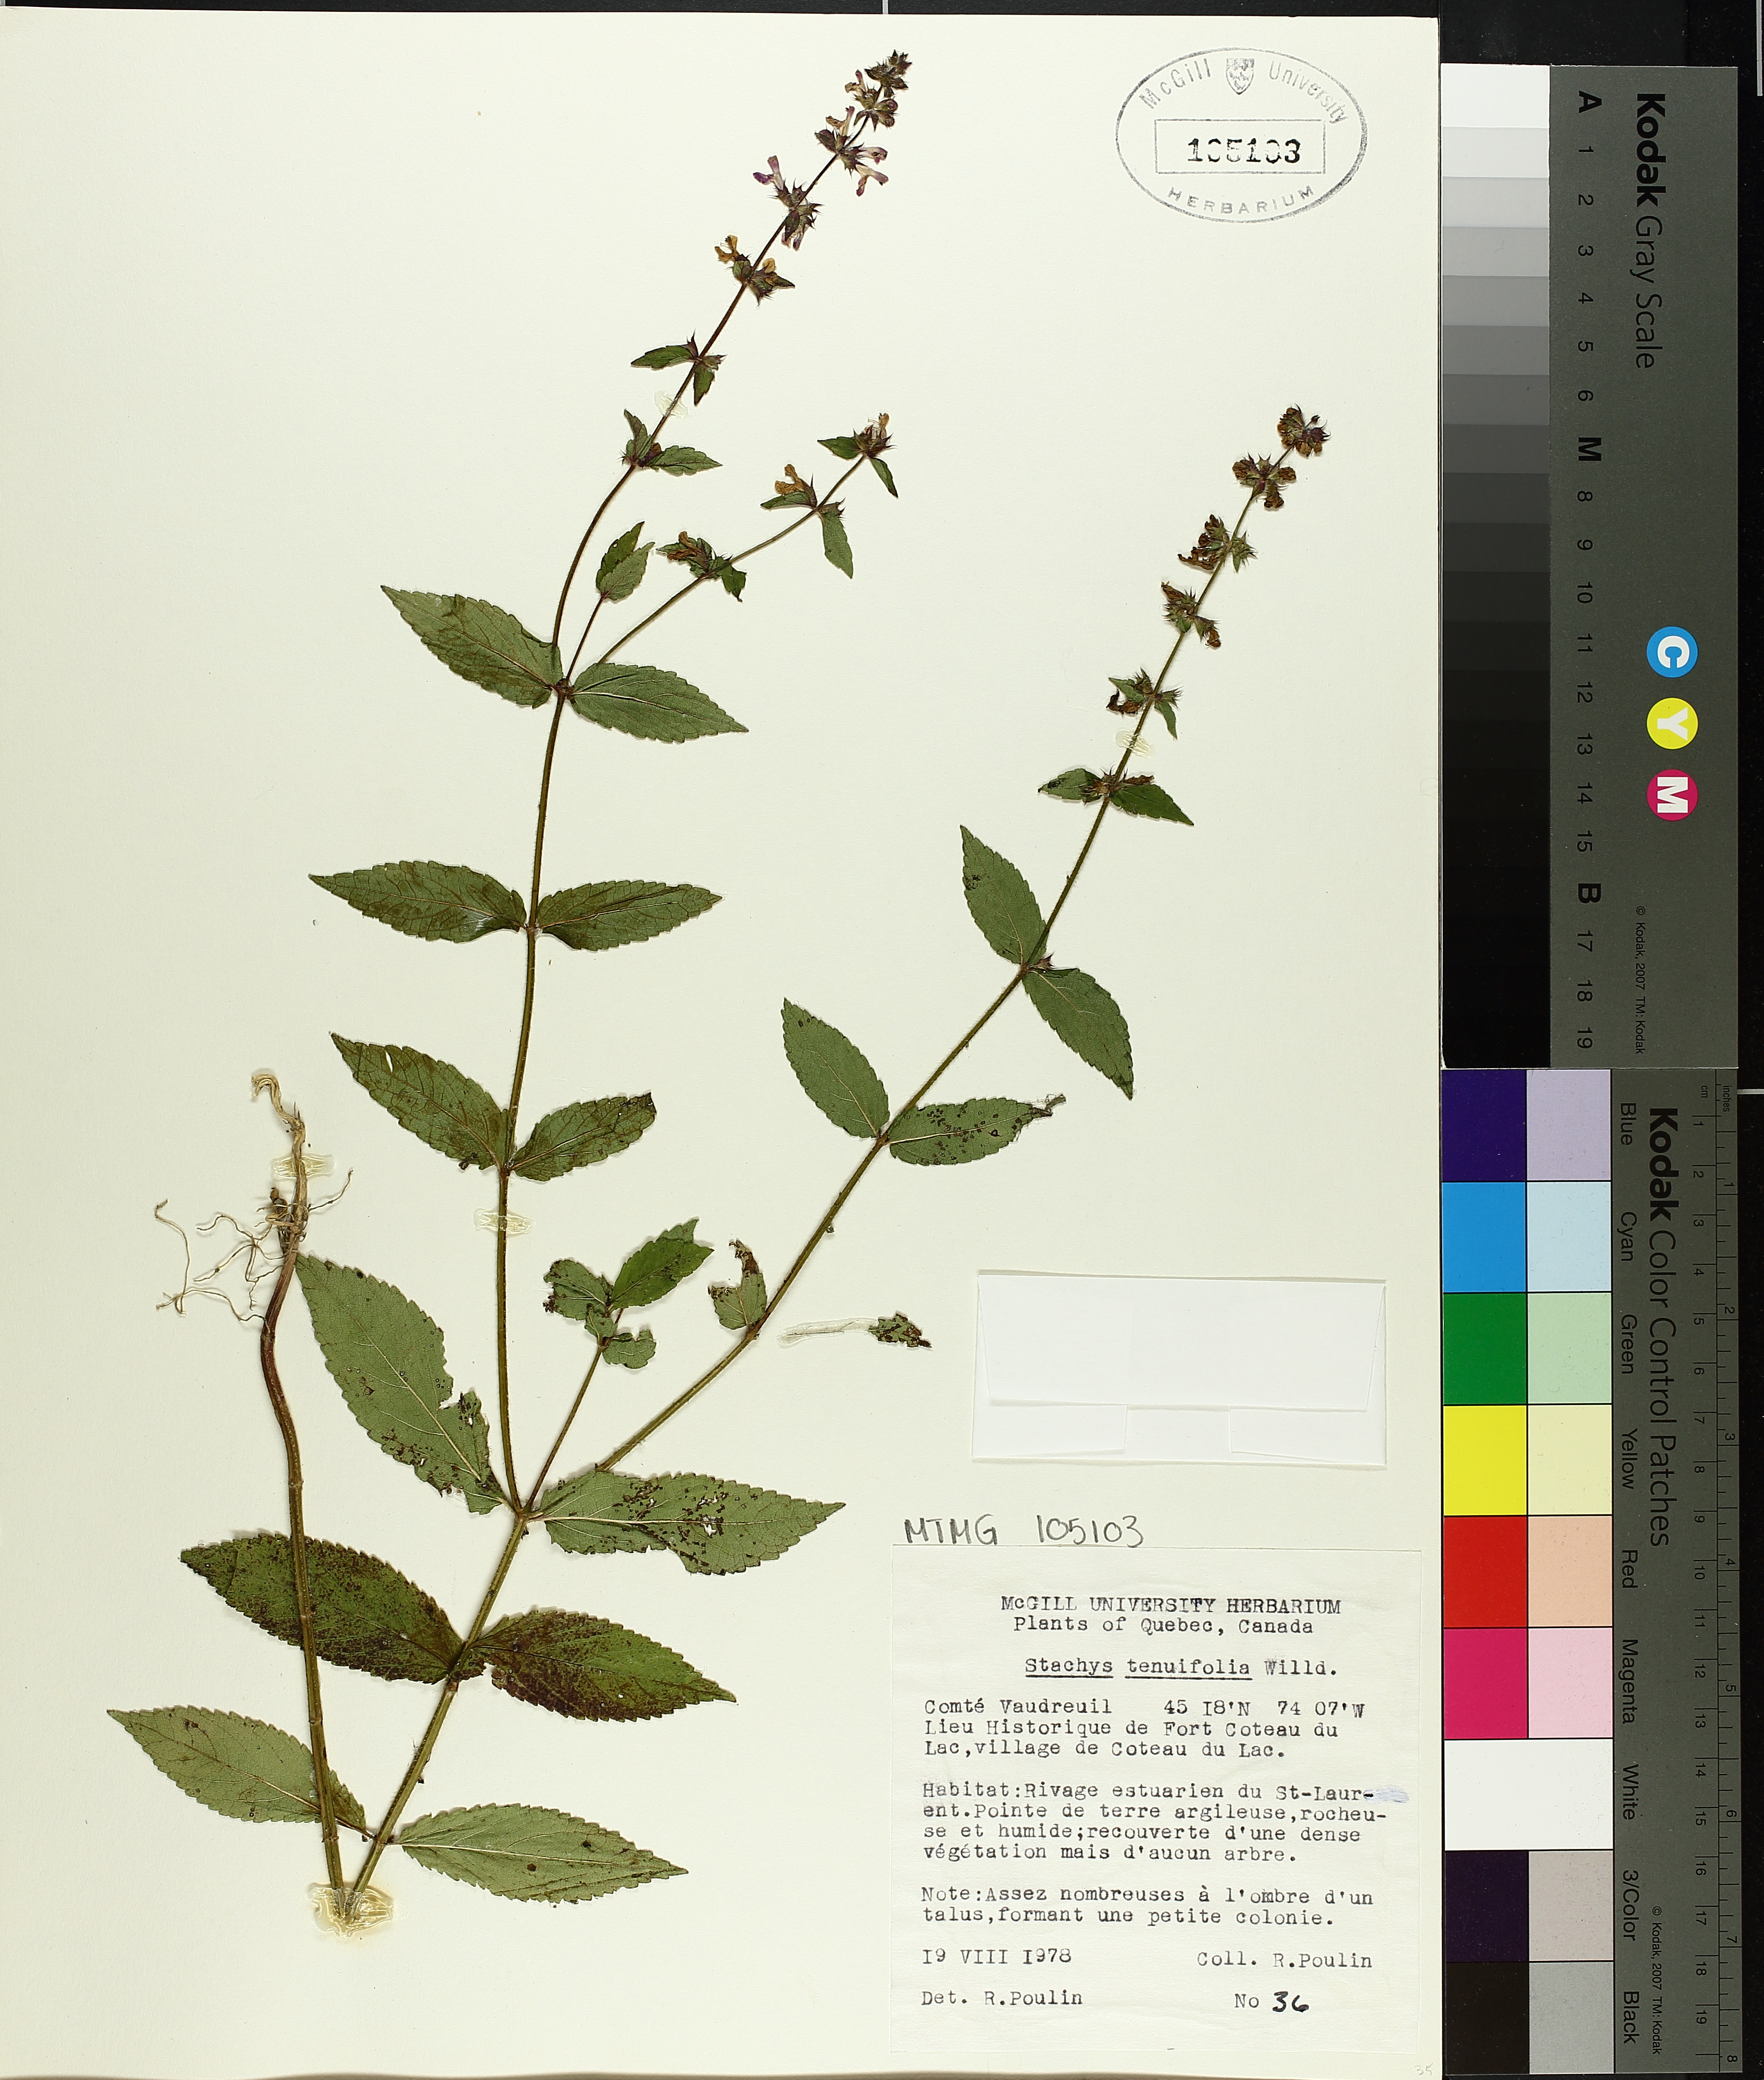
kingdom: Plantae
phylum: Tracheophyta
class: Magnoliopsida
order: Lamiales
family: Lamiaceae
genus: Stachys
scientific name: Stachys tenuifolia
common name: Smooth hedge-nettle
